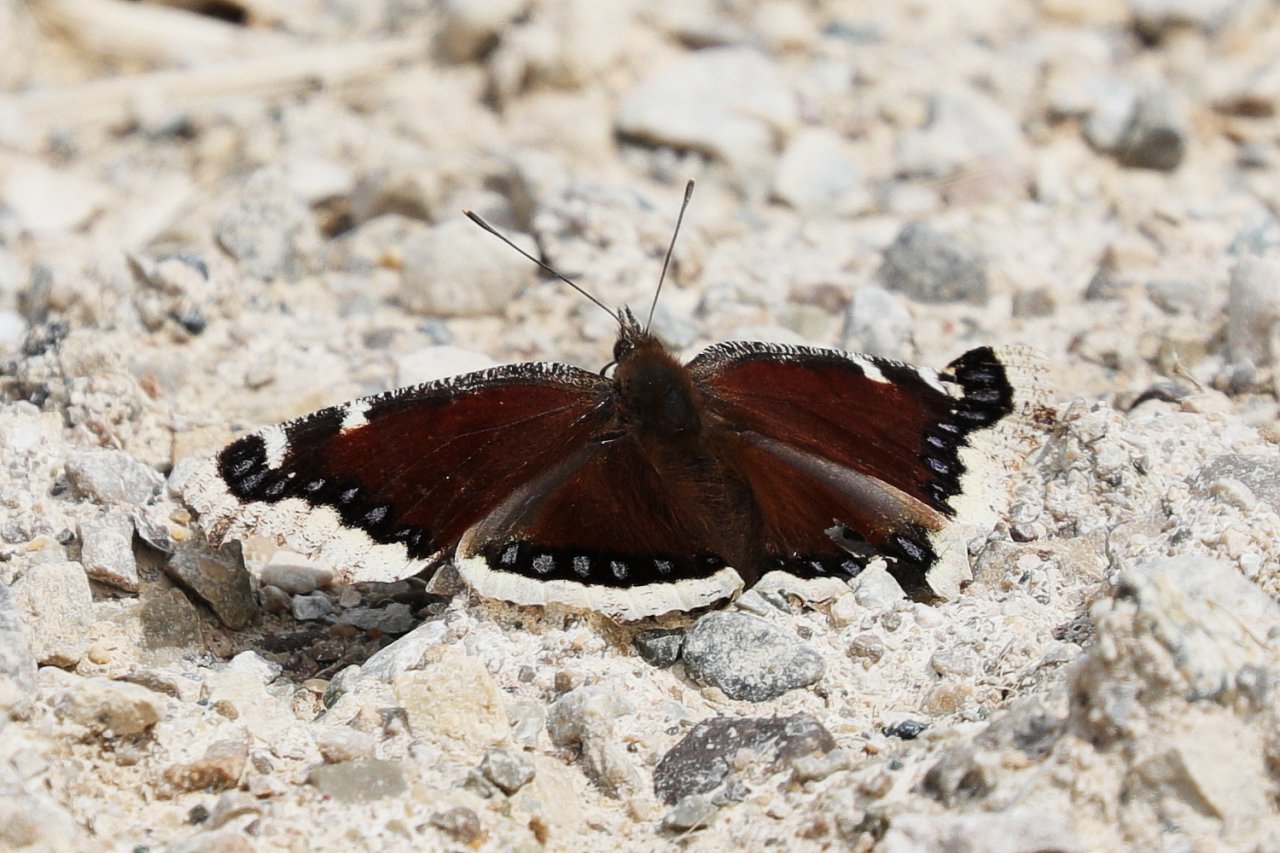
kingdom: Animalia
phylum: Arthropoda
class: Insecta
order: Lepidoptera
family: Nymphalidae
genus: Nymphalis
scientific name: Nymphalis antiopa
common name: Mourning Cloak
